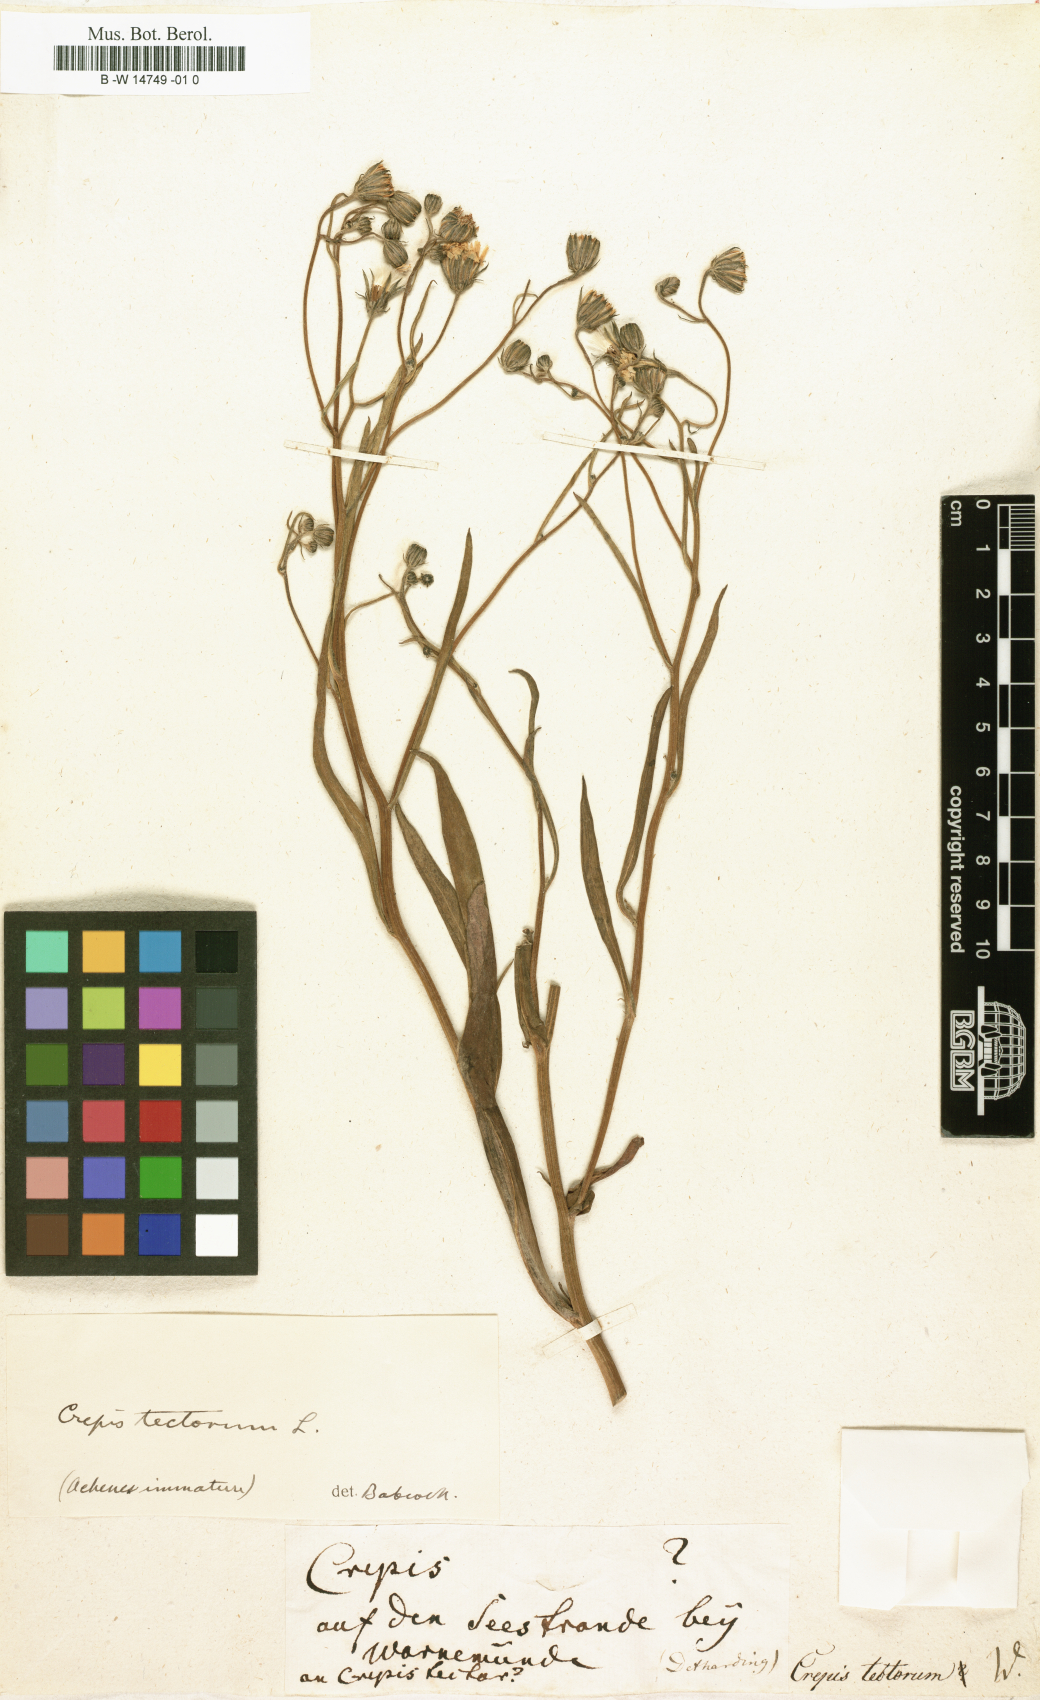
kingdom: Plantae
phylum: Tracheophyta
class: Magnoliopsida
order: Asterales
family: Asteraceae
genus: Crepis
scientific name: Crepis tectorum
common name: Narrow-leaved hawk's-beard
